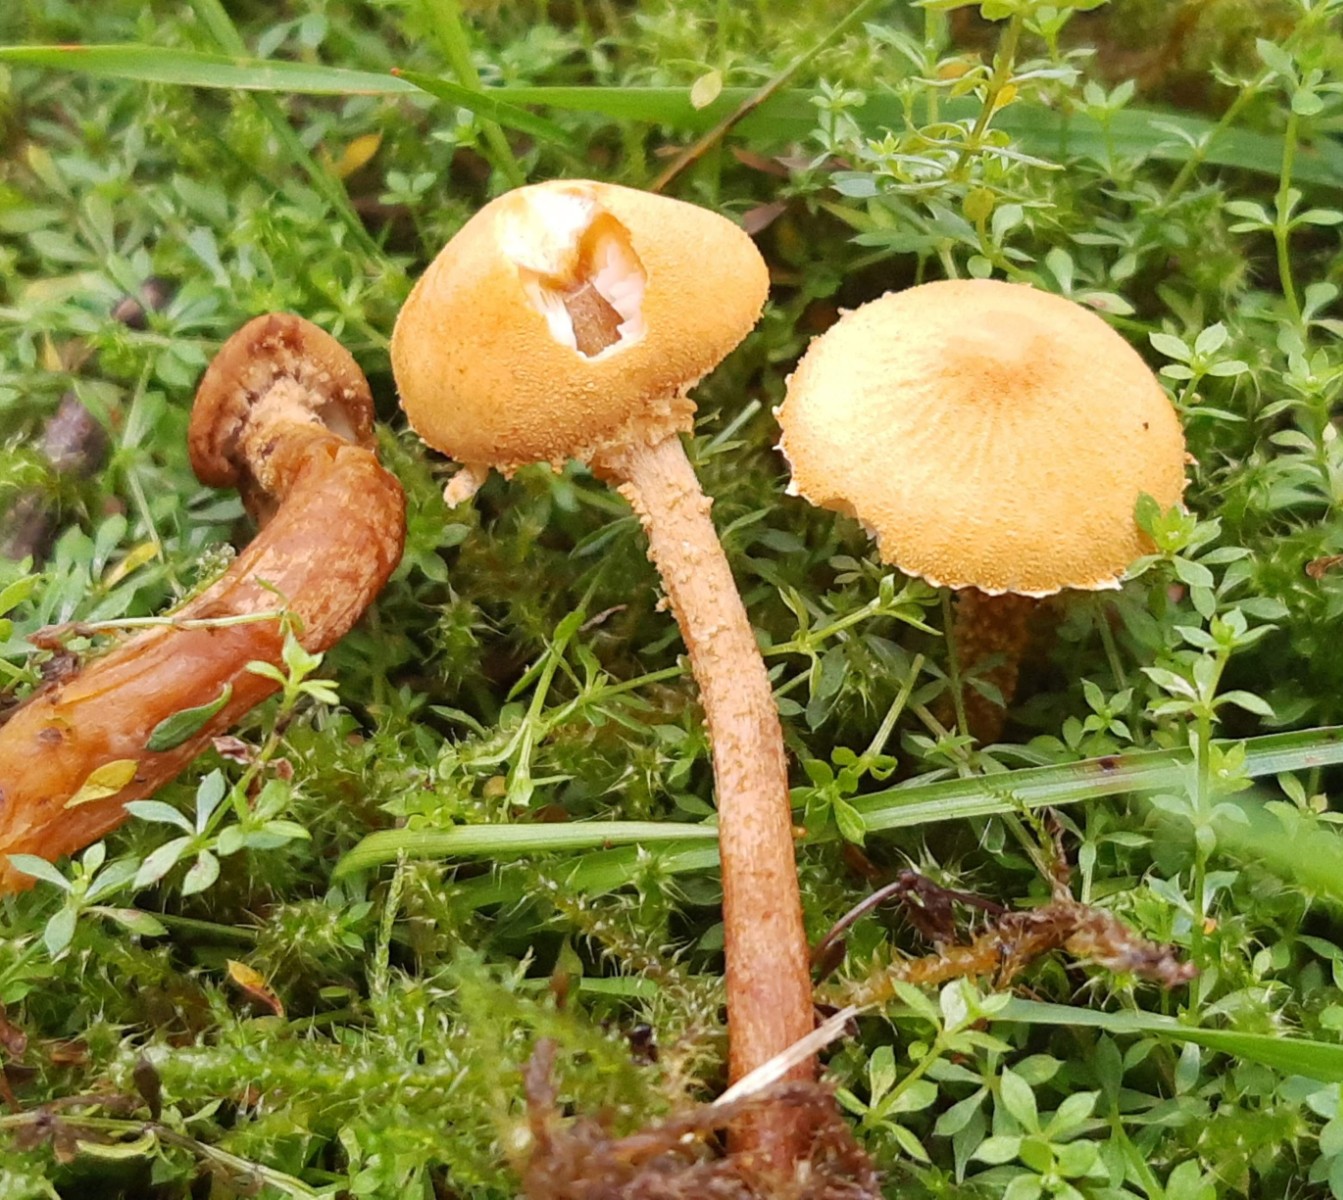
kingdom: Fungi
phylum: Basidiomycota
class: Agaricomycetes
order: Agaricales
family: Tricholomataceae
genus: Cystoderma
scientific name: Cystoderma amianthinum
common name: okkergul grynhat
